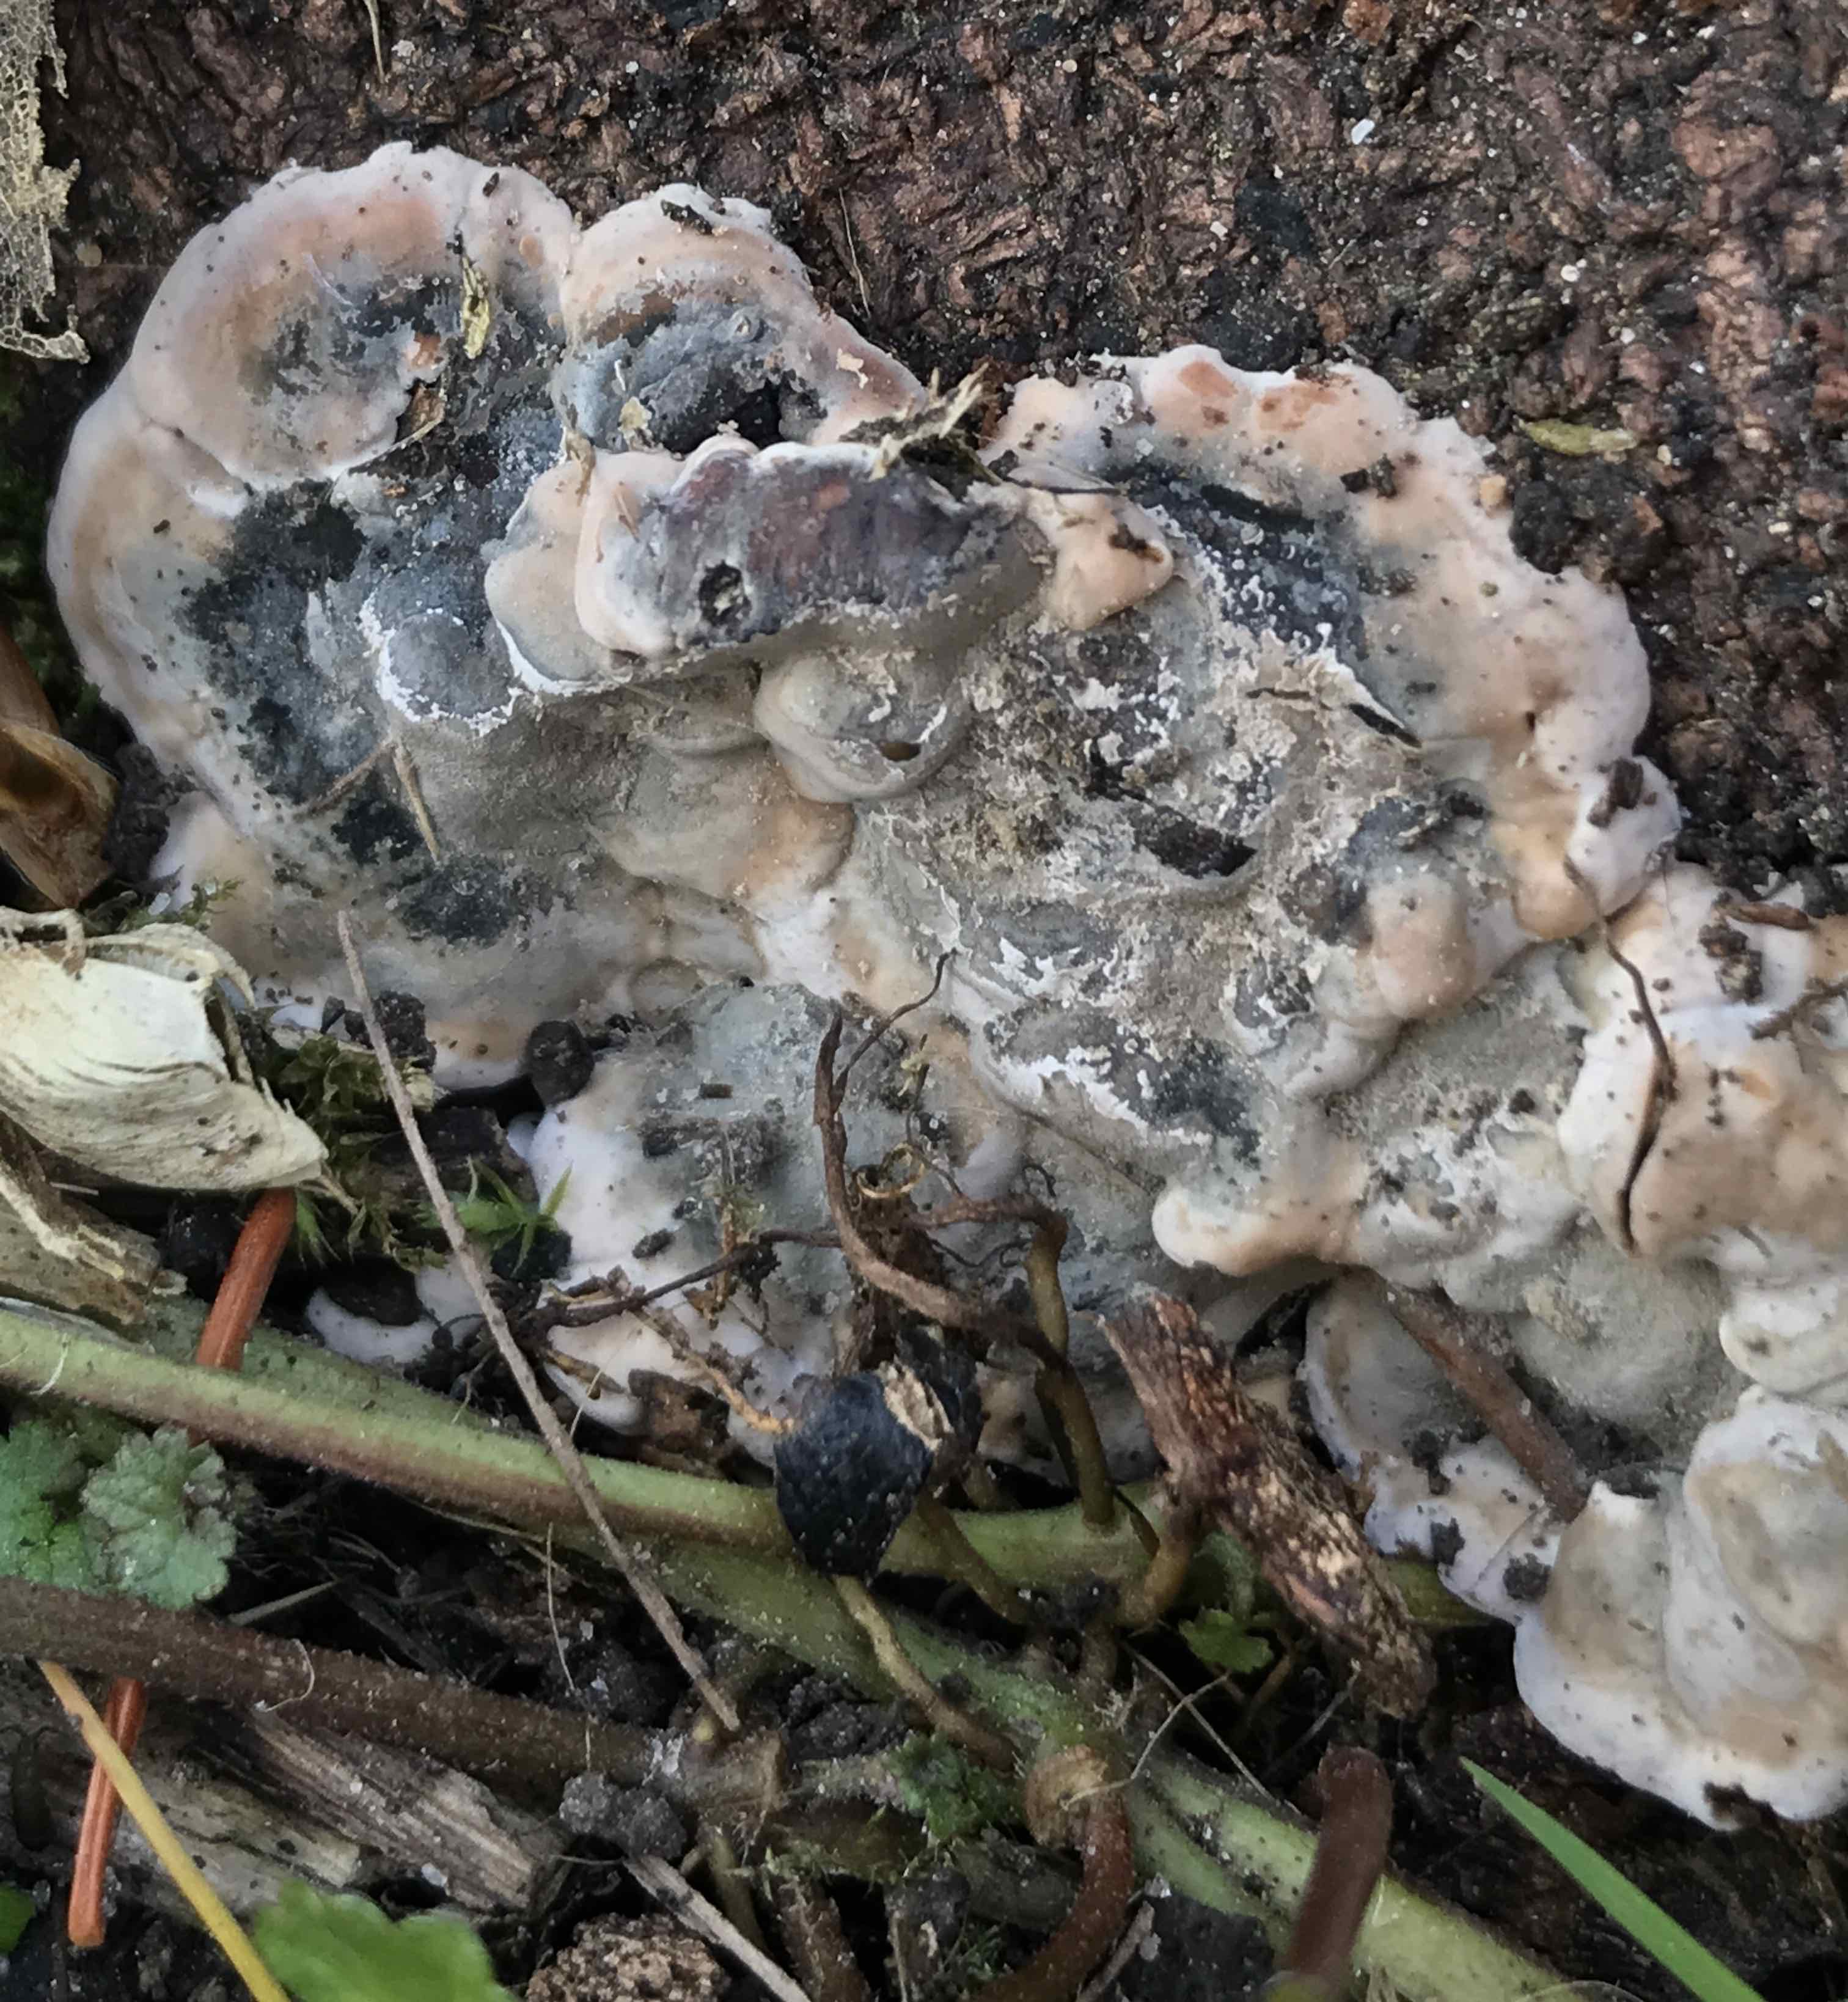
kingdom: Fungi
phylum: Ascomycota
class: Sordariomycetes
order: Xylariales
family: Xylariaceae
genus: Kretzschmaria
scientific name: Kretzschmaria deusta
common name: stor kulsvamp
